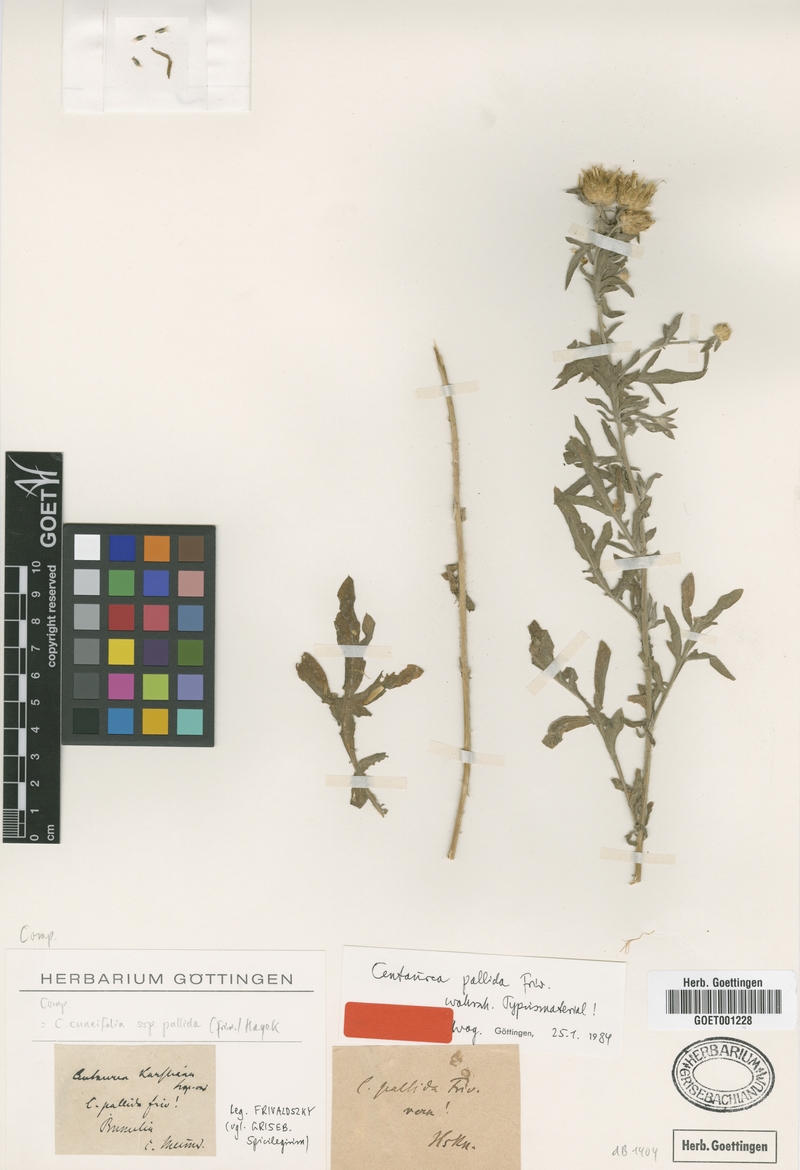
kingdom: Plantae
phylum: Tracheophyta
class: Magnoliopsida
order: Asterales
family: Asteraceae
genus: Centaurea
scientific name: Centaurea cuneifolia
